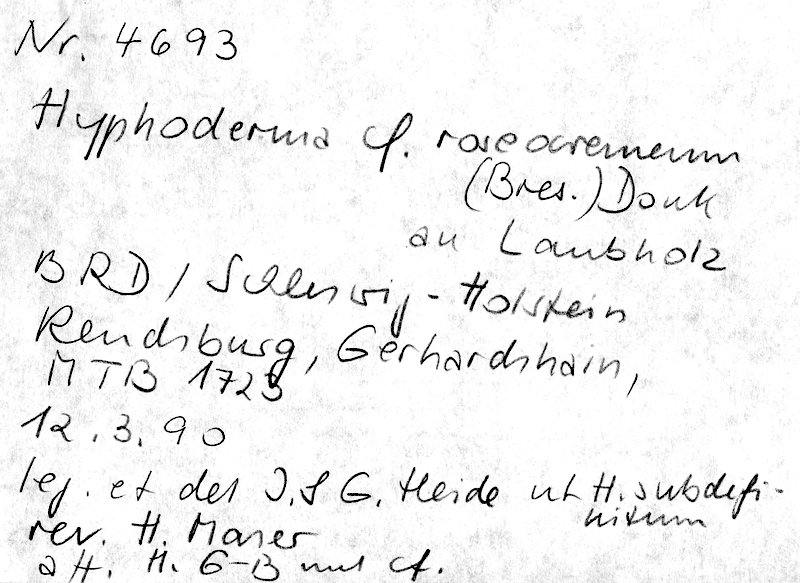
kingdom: Fungi
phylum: Basidiomycota
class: Agaricomycetes
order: Polyporales
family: Hyphodermataceae
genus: Hyphoderma
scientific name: Hyphoderma roseocremeum
